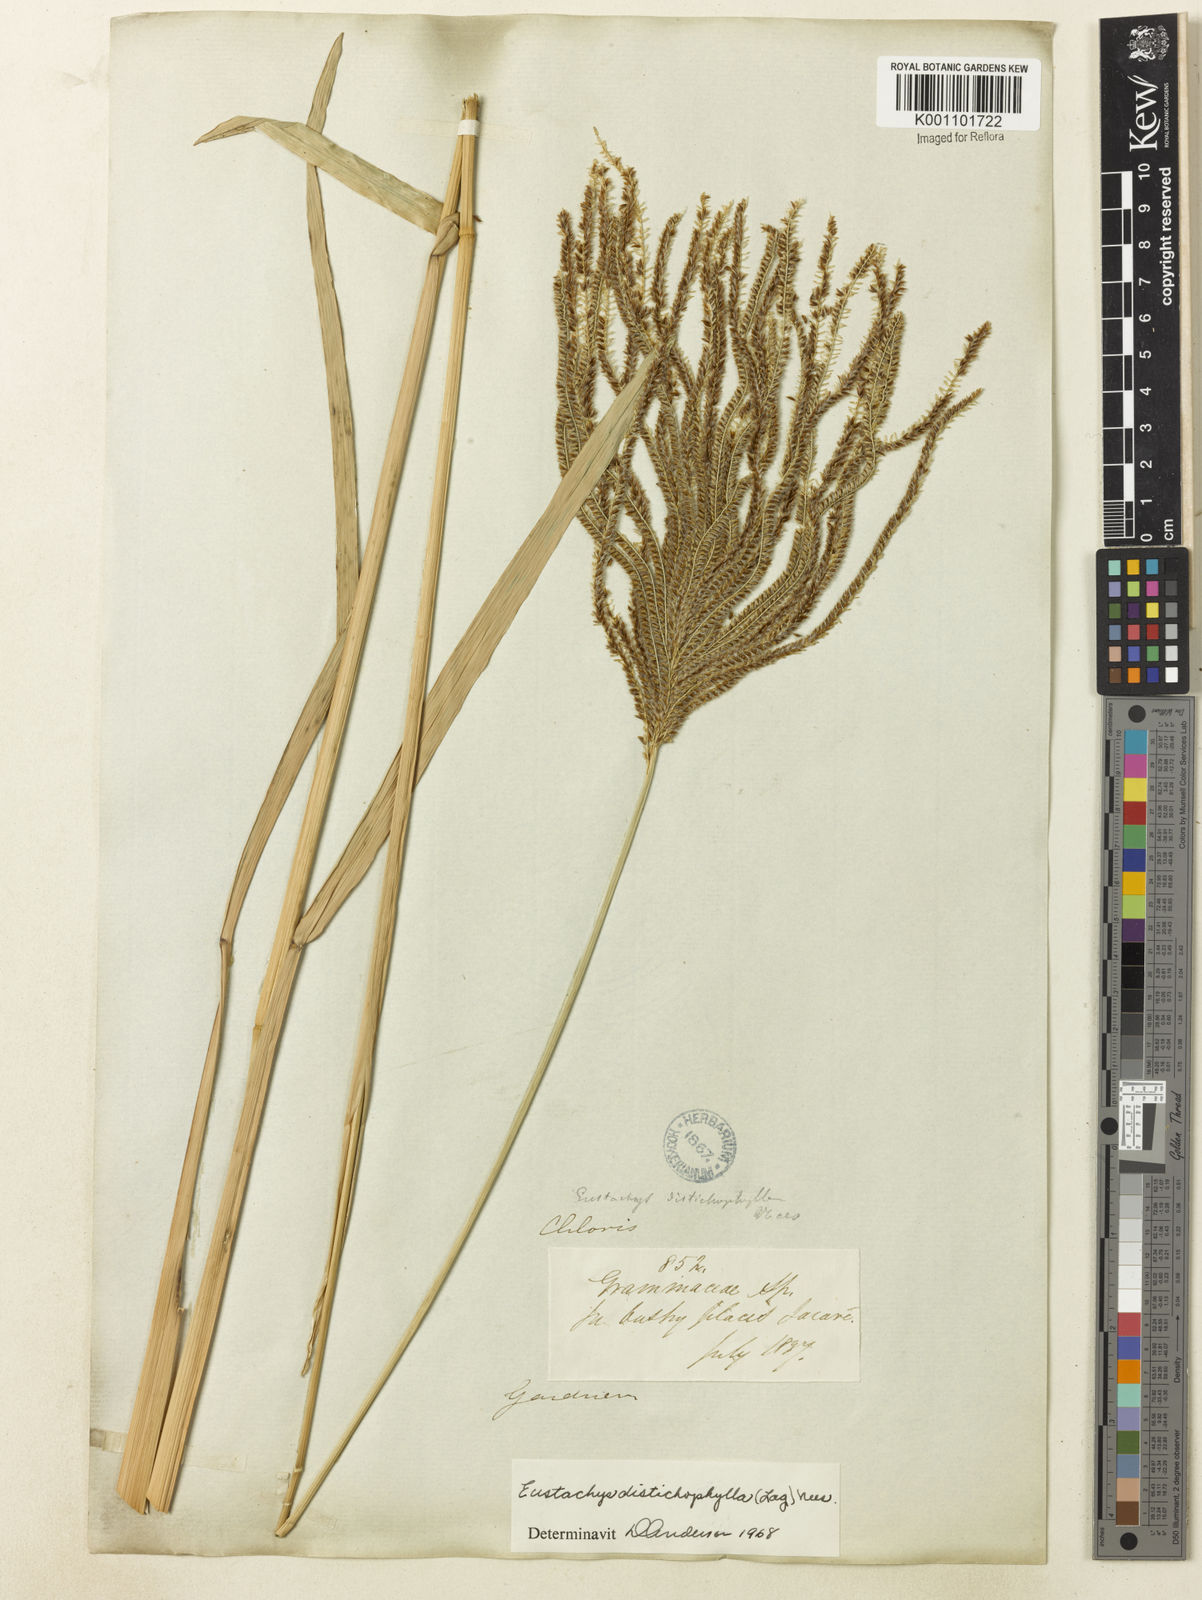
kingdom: Plantae
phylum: Tracheophyta
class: Liliopsida
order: Poales
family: Poaceae
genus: Eustachys
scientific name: Eustachys distichophylla
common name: Weeping fingergrass
